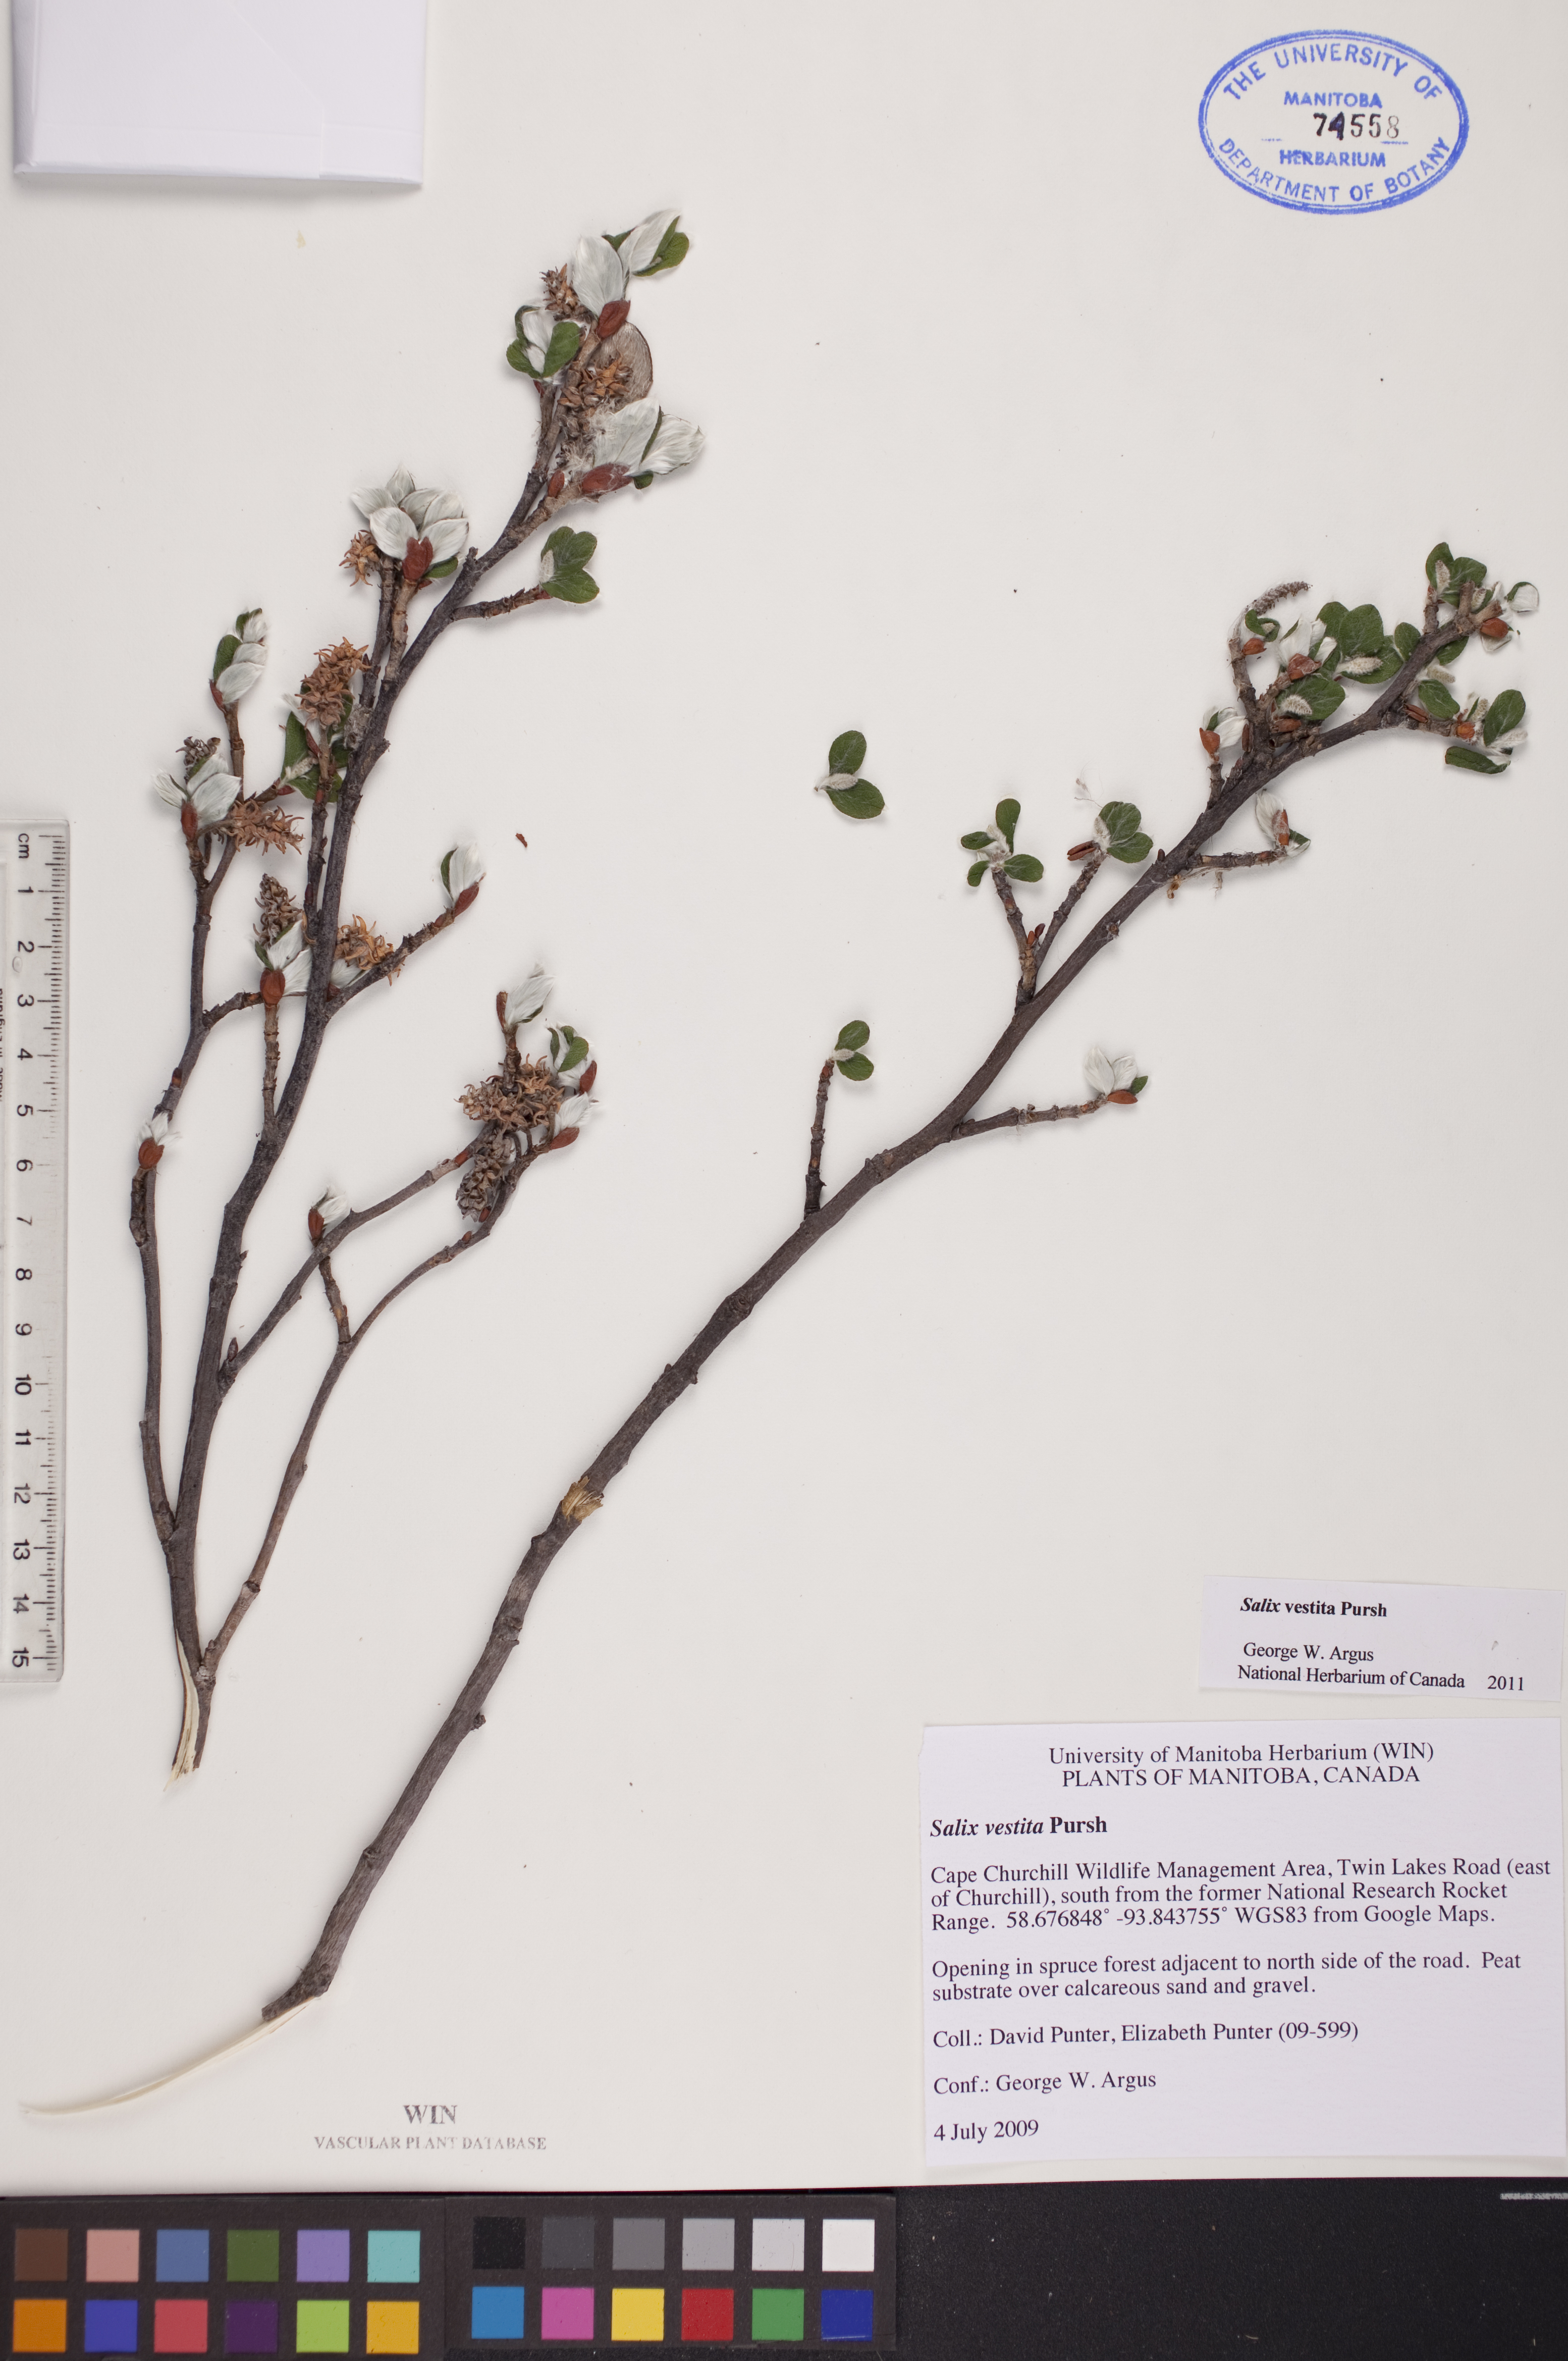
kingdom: Plantae
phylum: Tracheophyta
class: Magnoliopsida
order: Malpighiales
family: Salicaceae
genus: Salix
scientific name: Salix vestita
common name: Hairy willow
